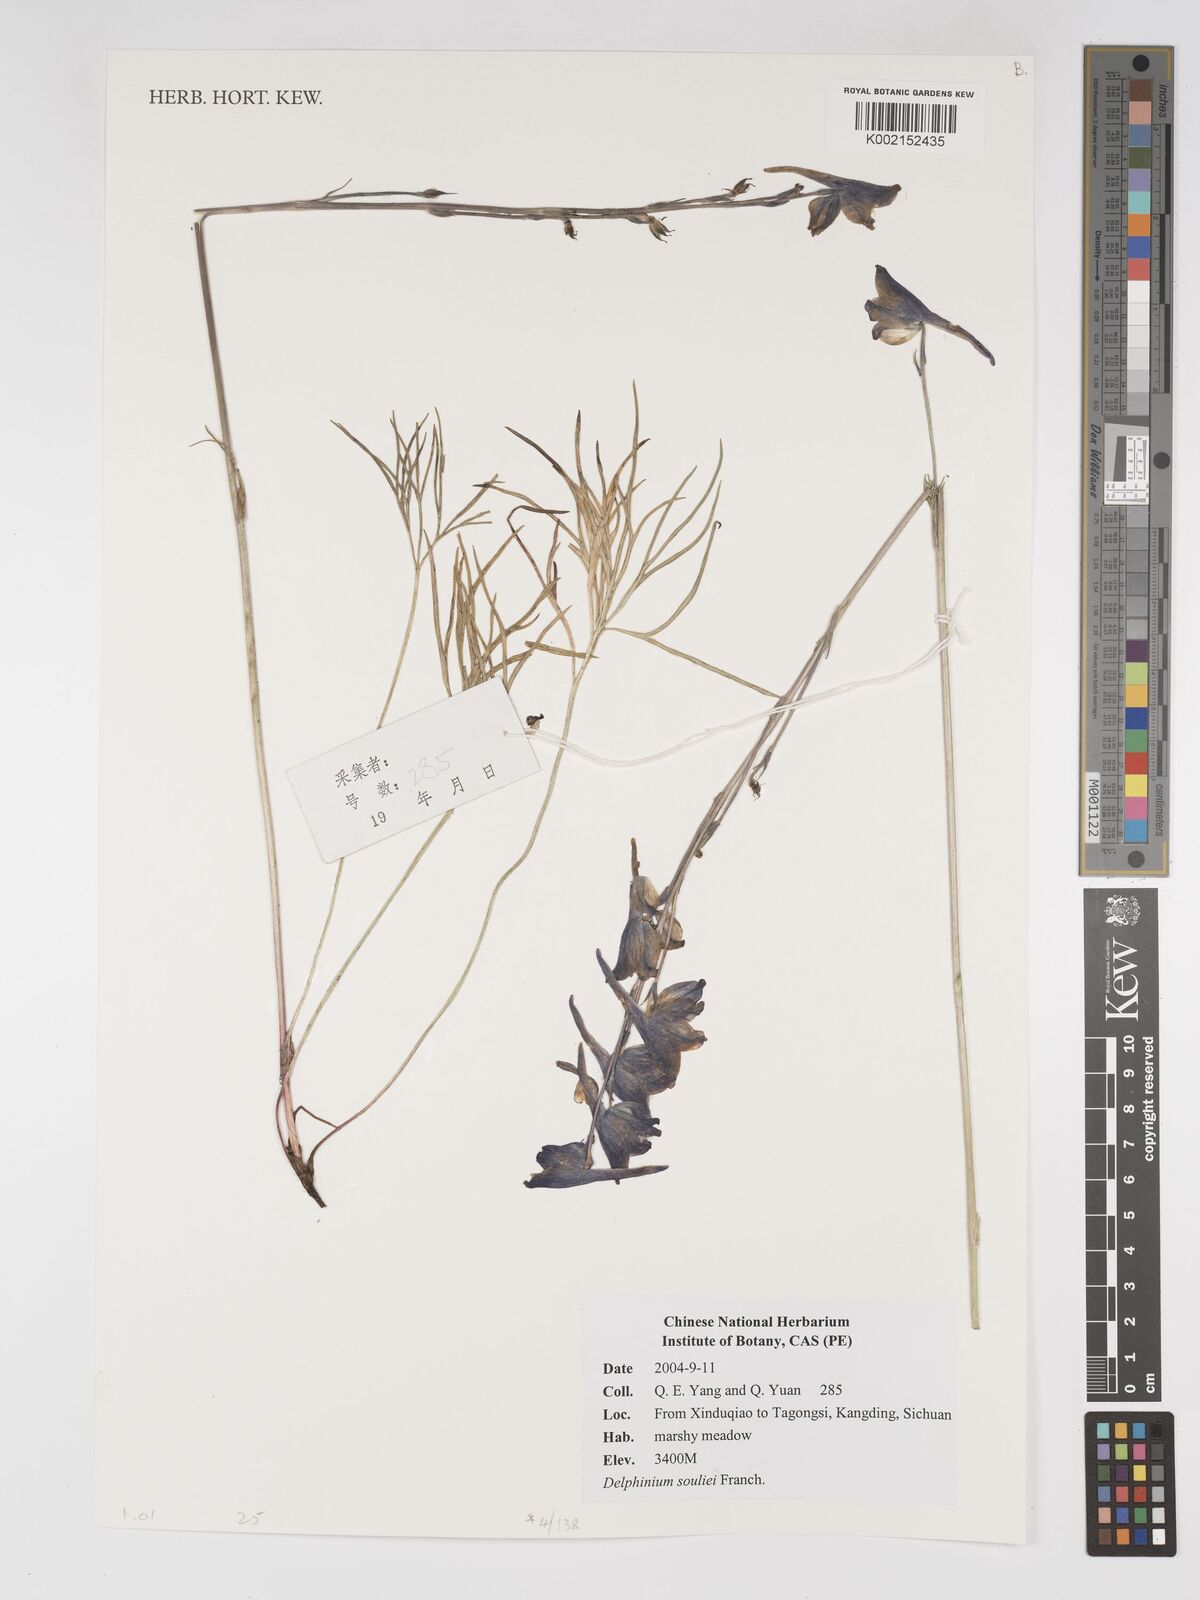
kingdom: Plantae
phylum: Tracheophyta
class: Magnoliopsida
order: Ranunculales
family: Ranunculaceae
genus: Delphinium
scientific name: Delphinium souliei
